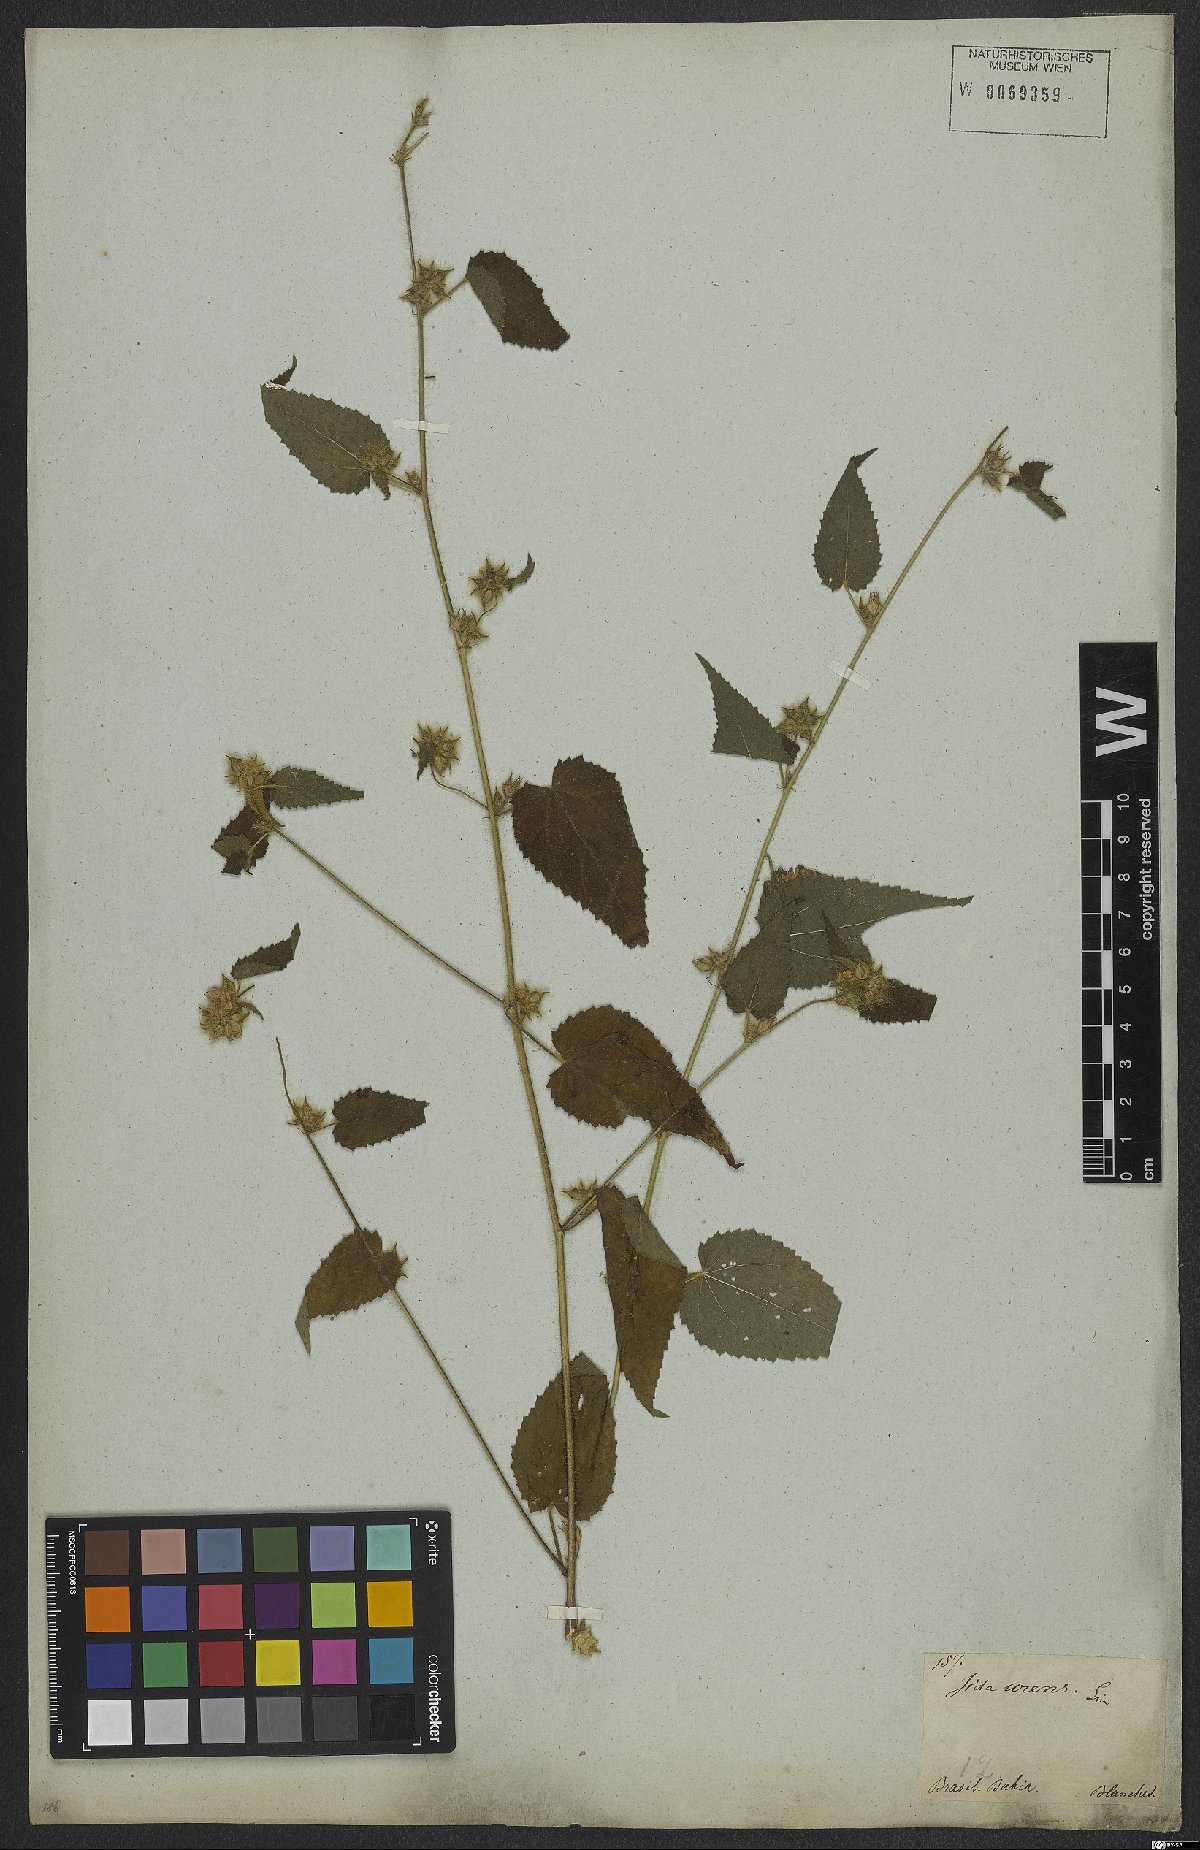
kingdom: Plantae
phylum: Tracheophyta
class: Magnoliopsida
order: Malvales
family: Malvaceae
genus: Sida
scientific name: Sida urens
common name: Tropical fanpetals
